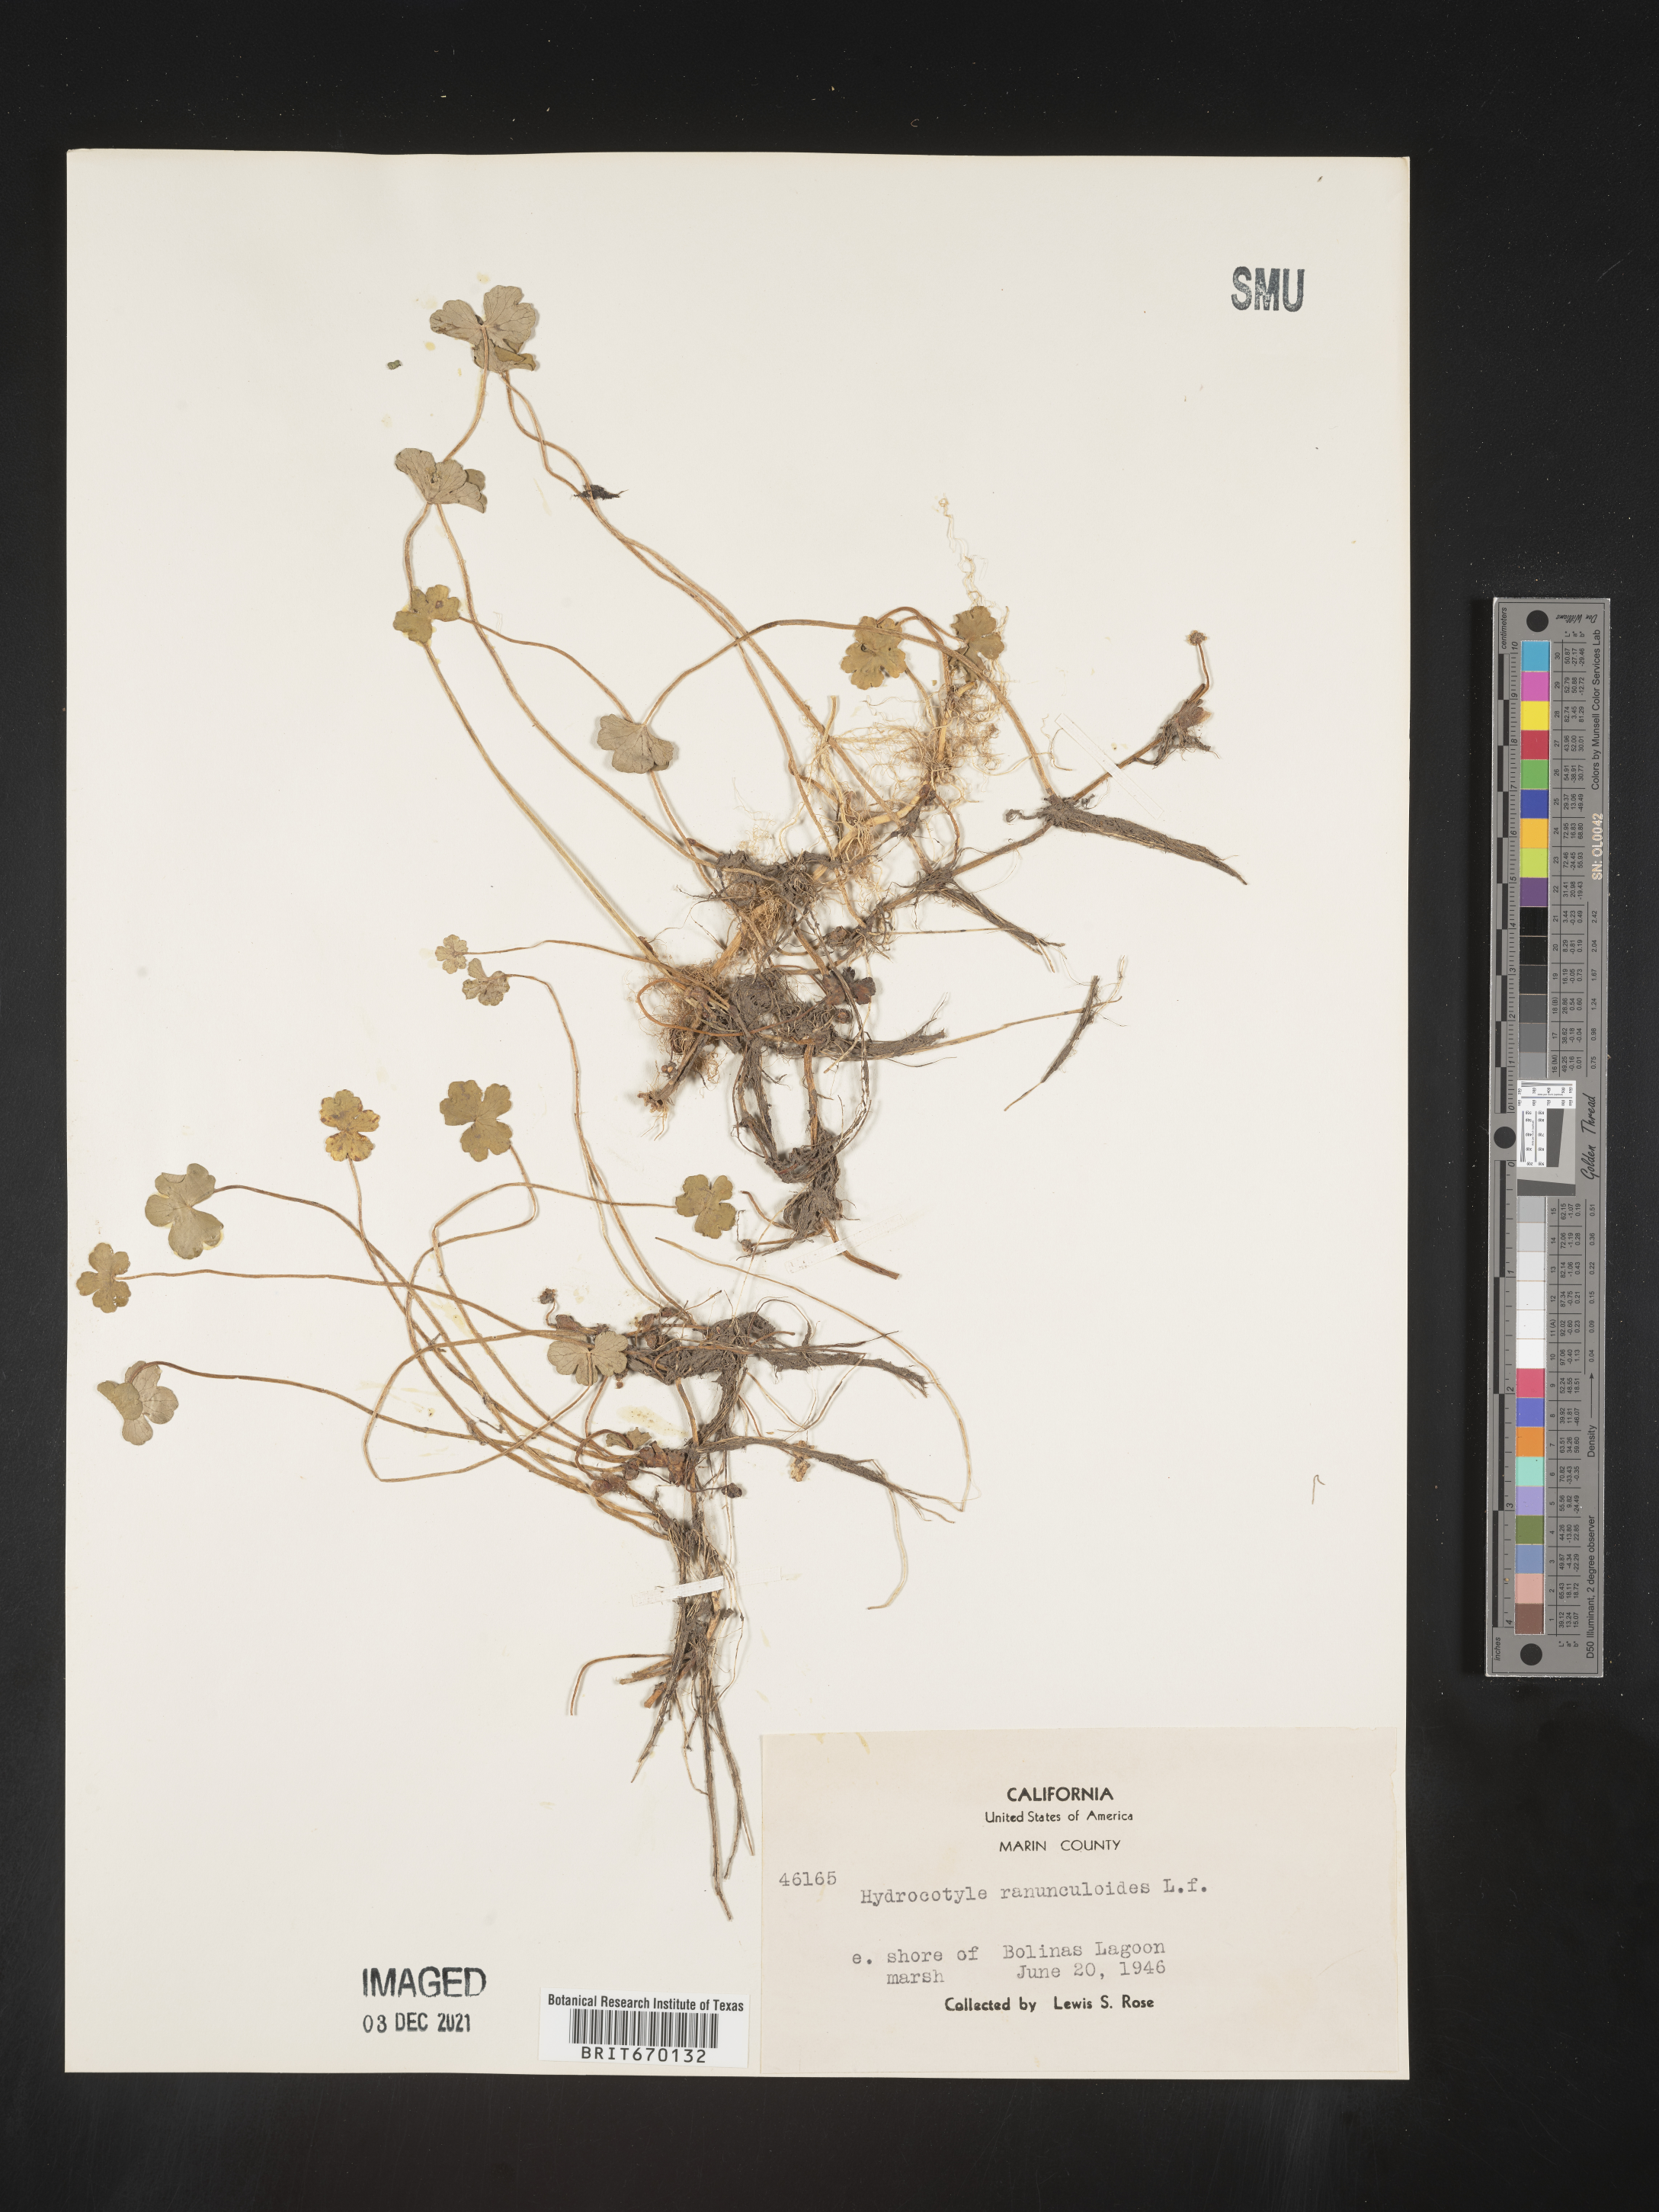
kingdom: Plantae
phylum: Tracheophyta
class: Magnoliopsida
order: Apiales
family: Araliaceae
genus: Hydrocotyle
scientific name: Hydrocotyle ranunculoides
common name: Floating pennywort
